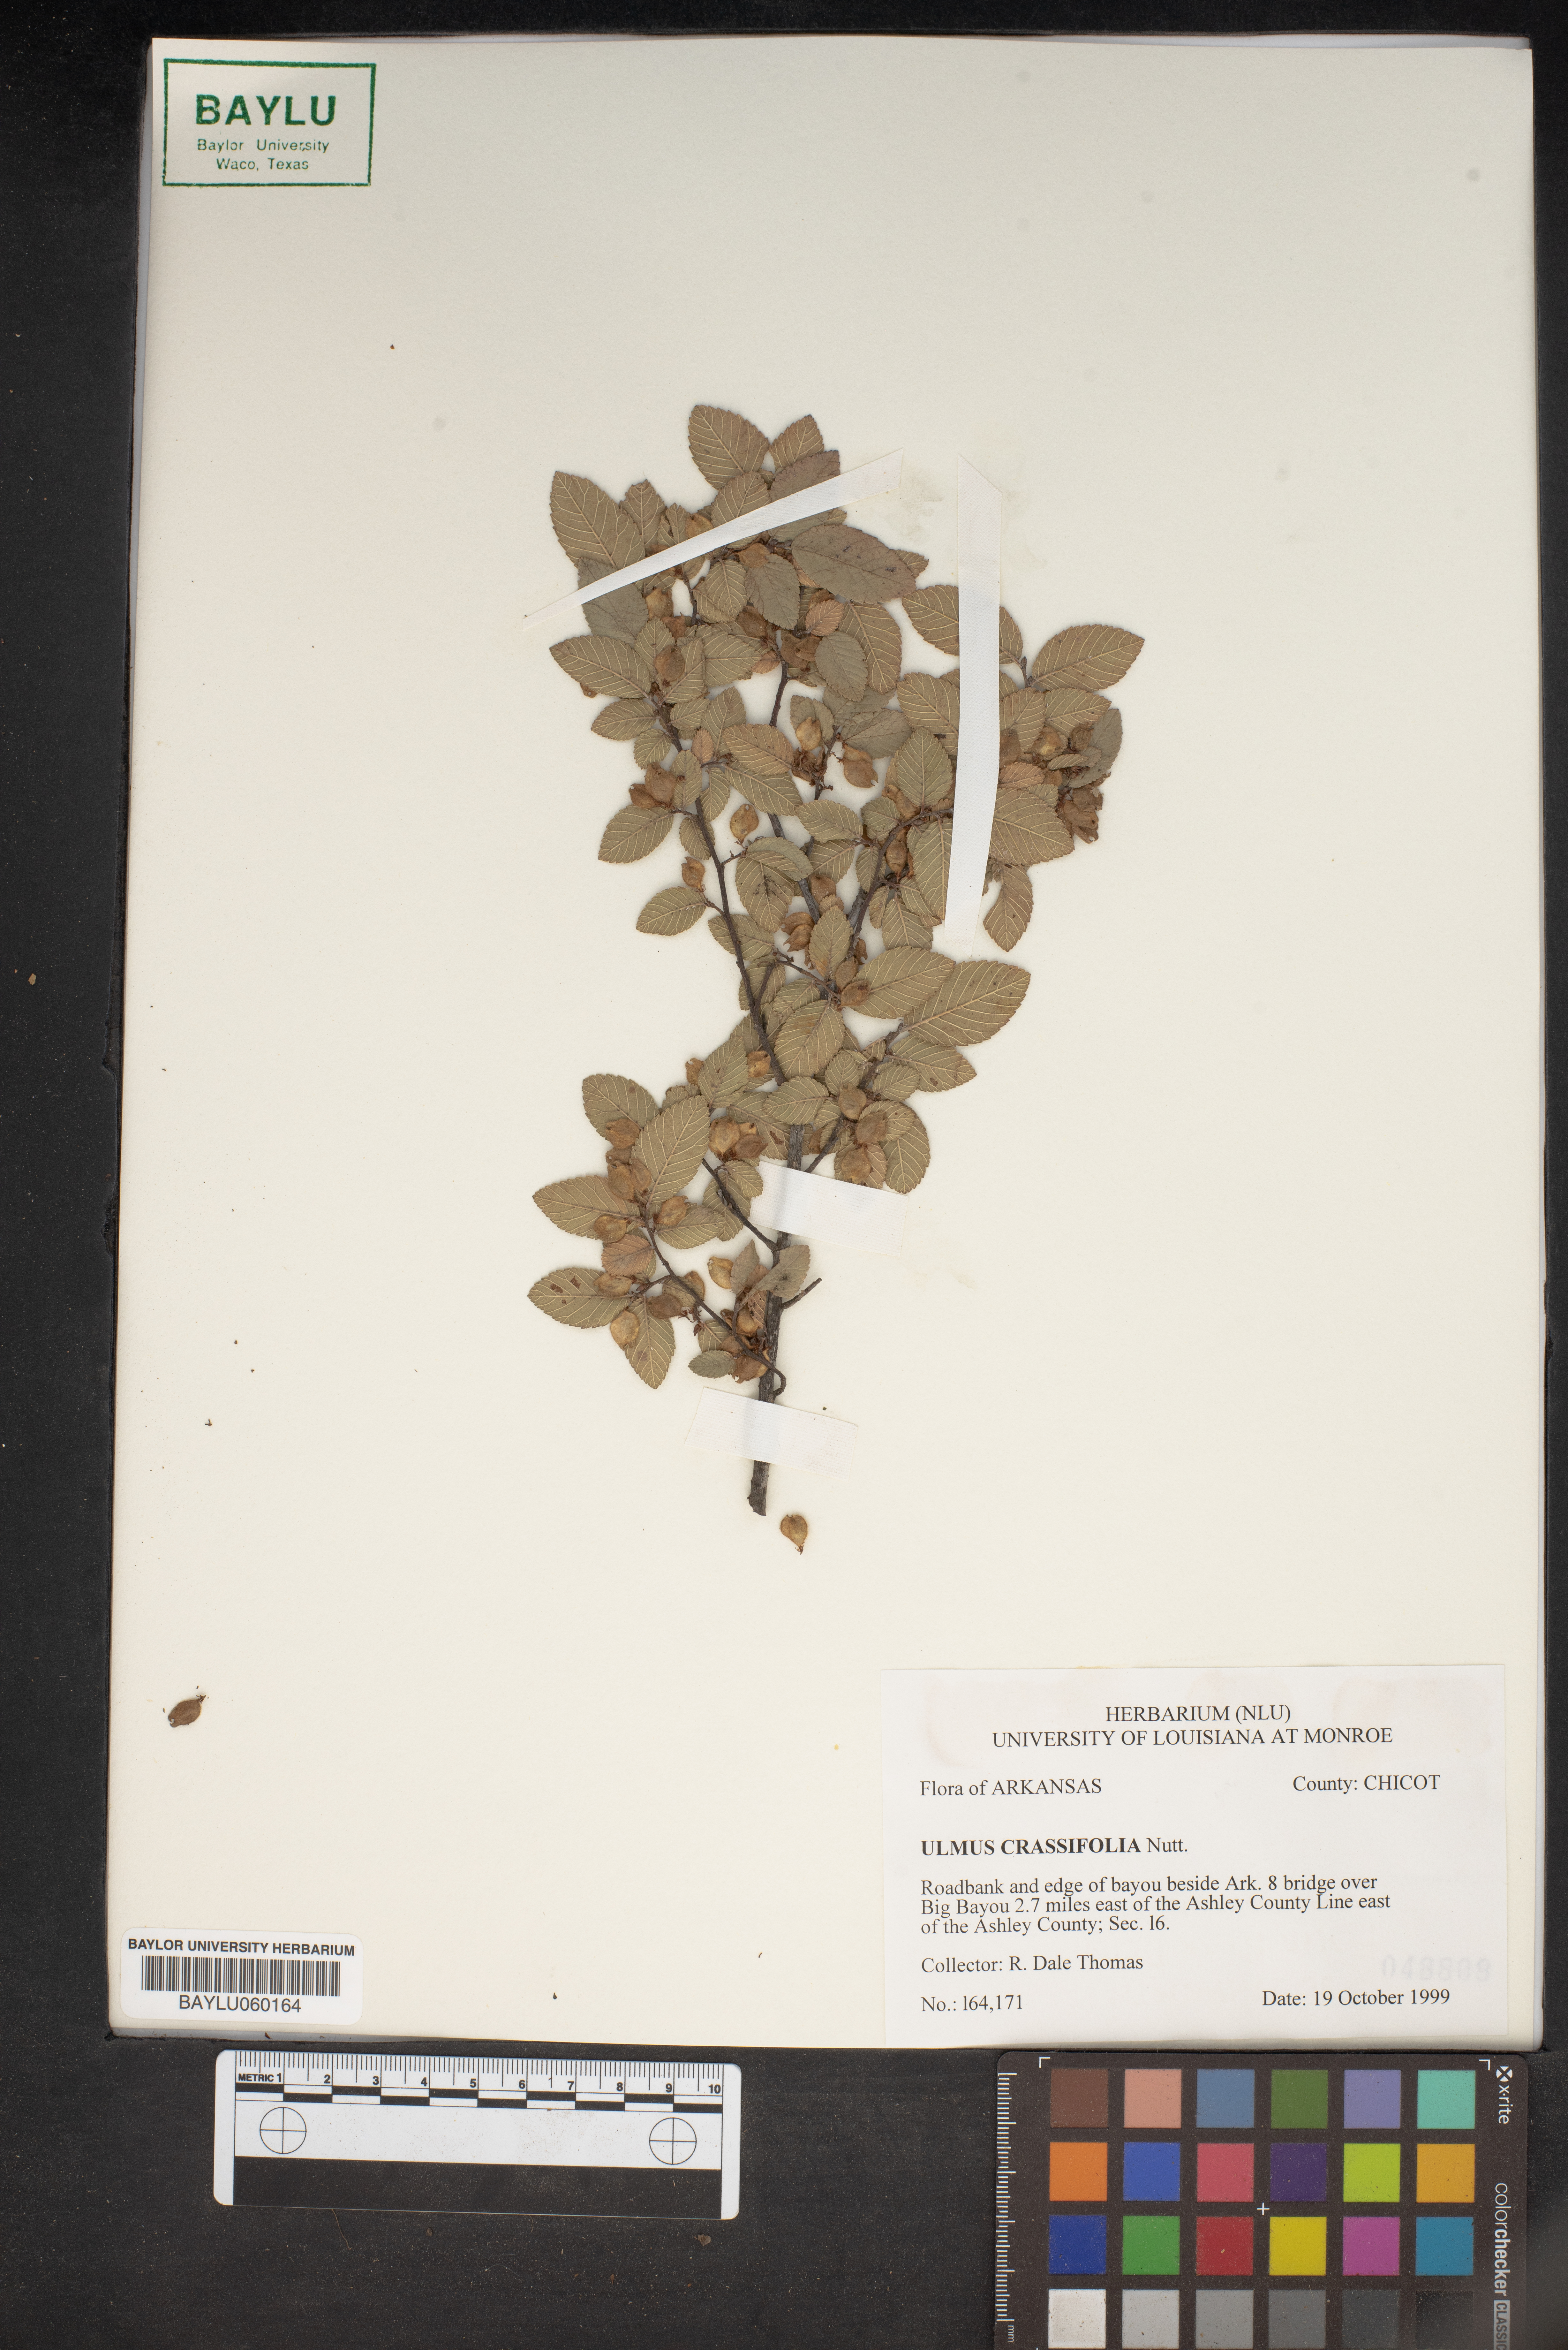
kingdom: Plantae
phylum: Tracheophyta
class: Magnoliopsida
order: Rosales
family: Ulmaceae
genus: Ulmus
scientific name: Ulmus crassifolia
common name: Basket elm
